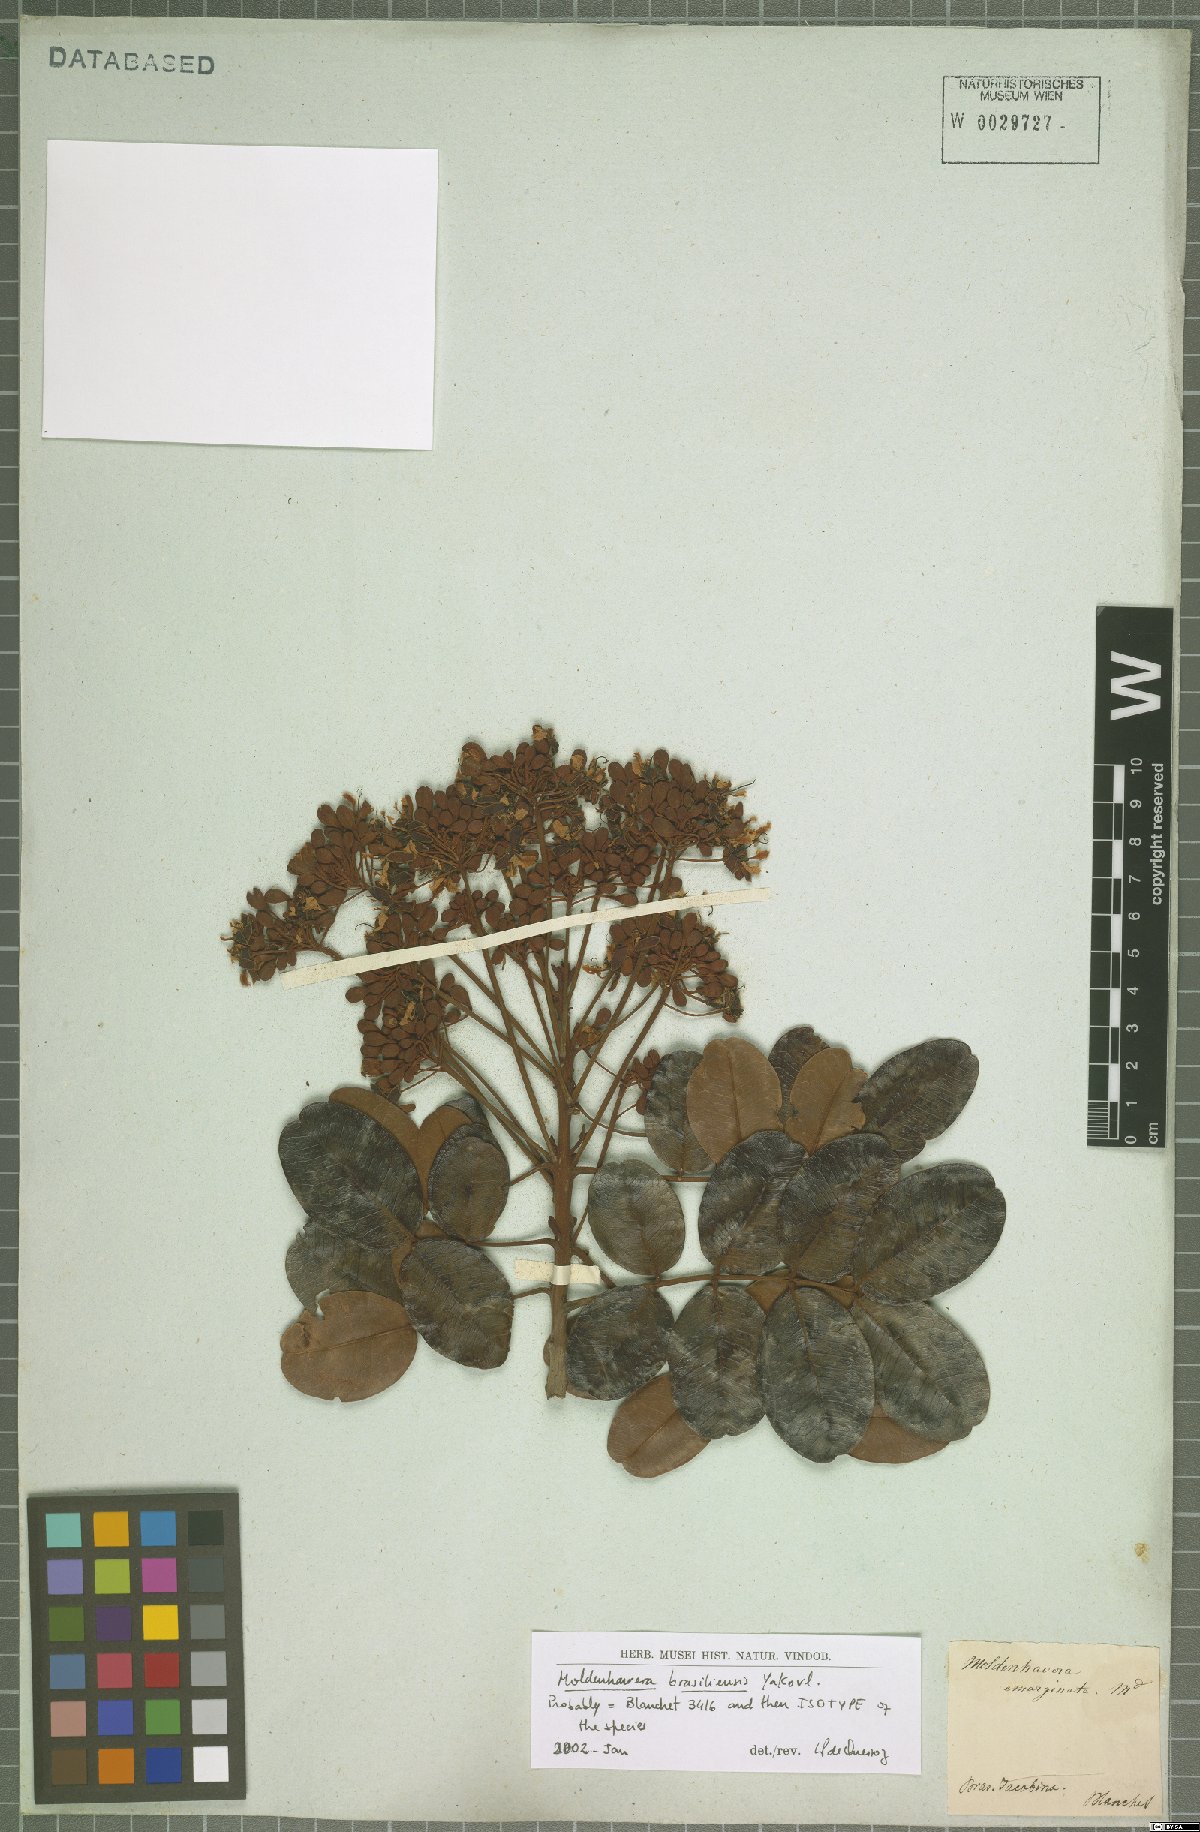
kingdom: Plantae
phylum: Tracheophyta
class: Magnoliopsida
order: Fabales
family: Fabaceae
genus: Moldenhawera
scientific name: Moldenhawera brasiliensis
